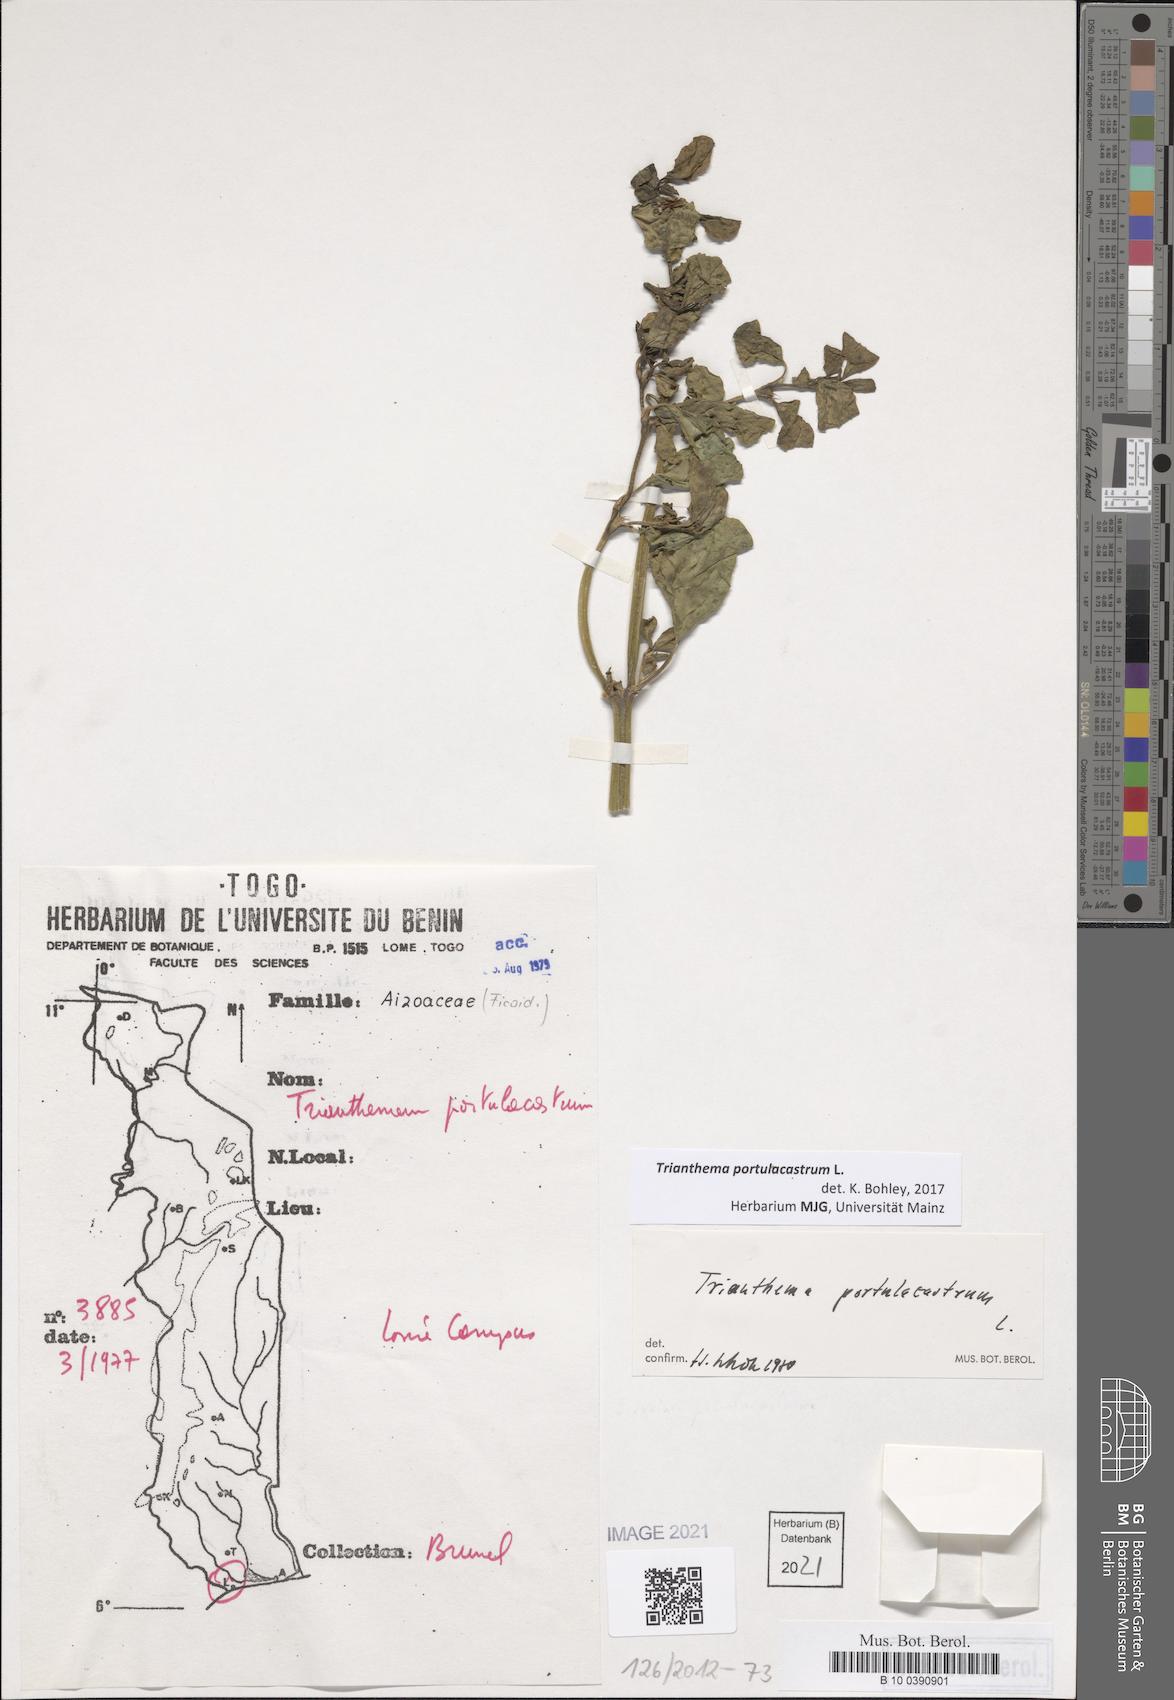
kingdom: Plantae
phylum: Tracheophyta
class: Magnoliopsida
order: Caryophyllales
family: Aizoaceae
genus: Trianthema
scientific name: Trianthema portulacastrum
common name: Desert horsepurslane
